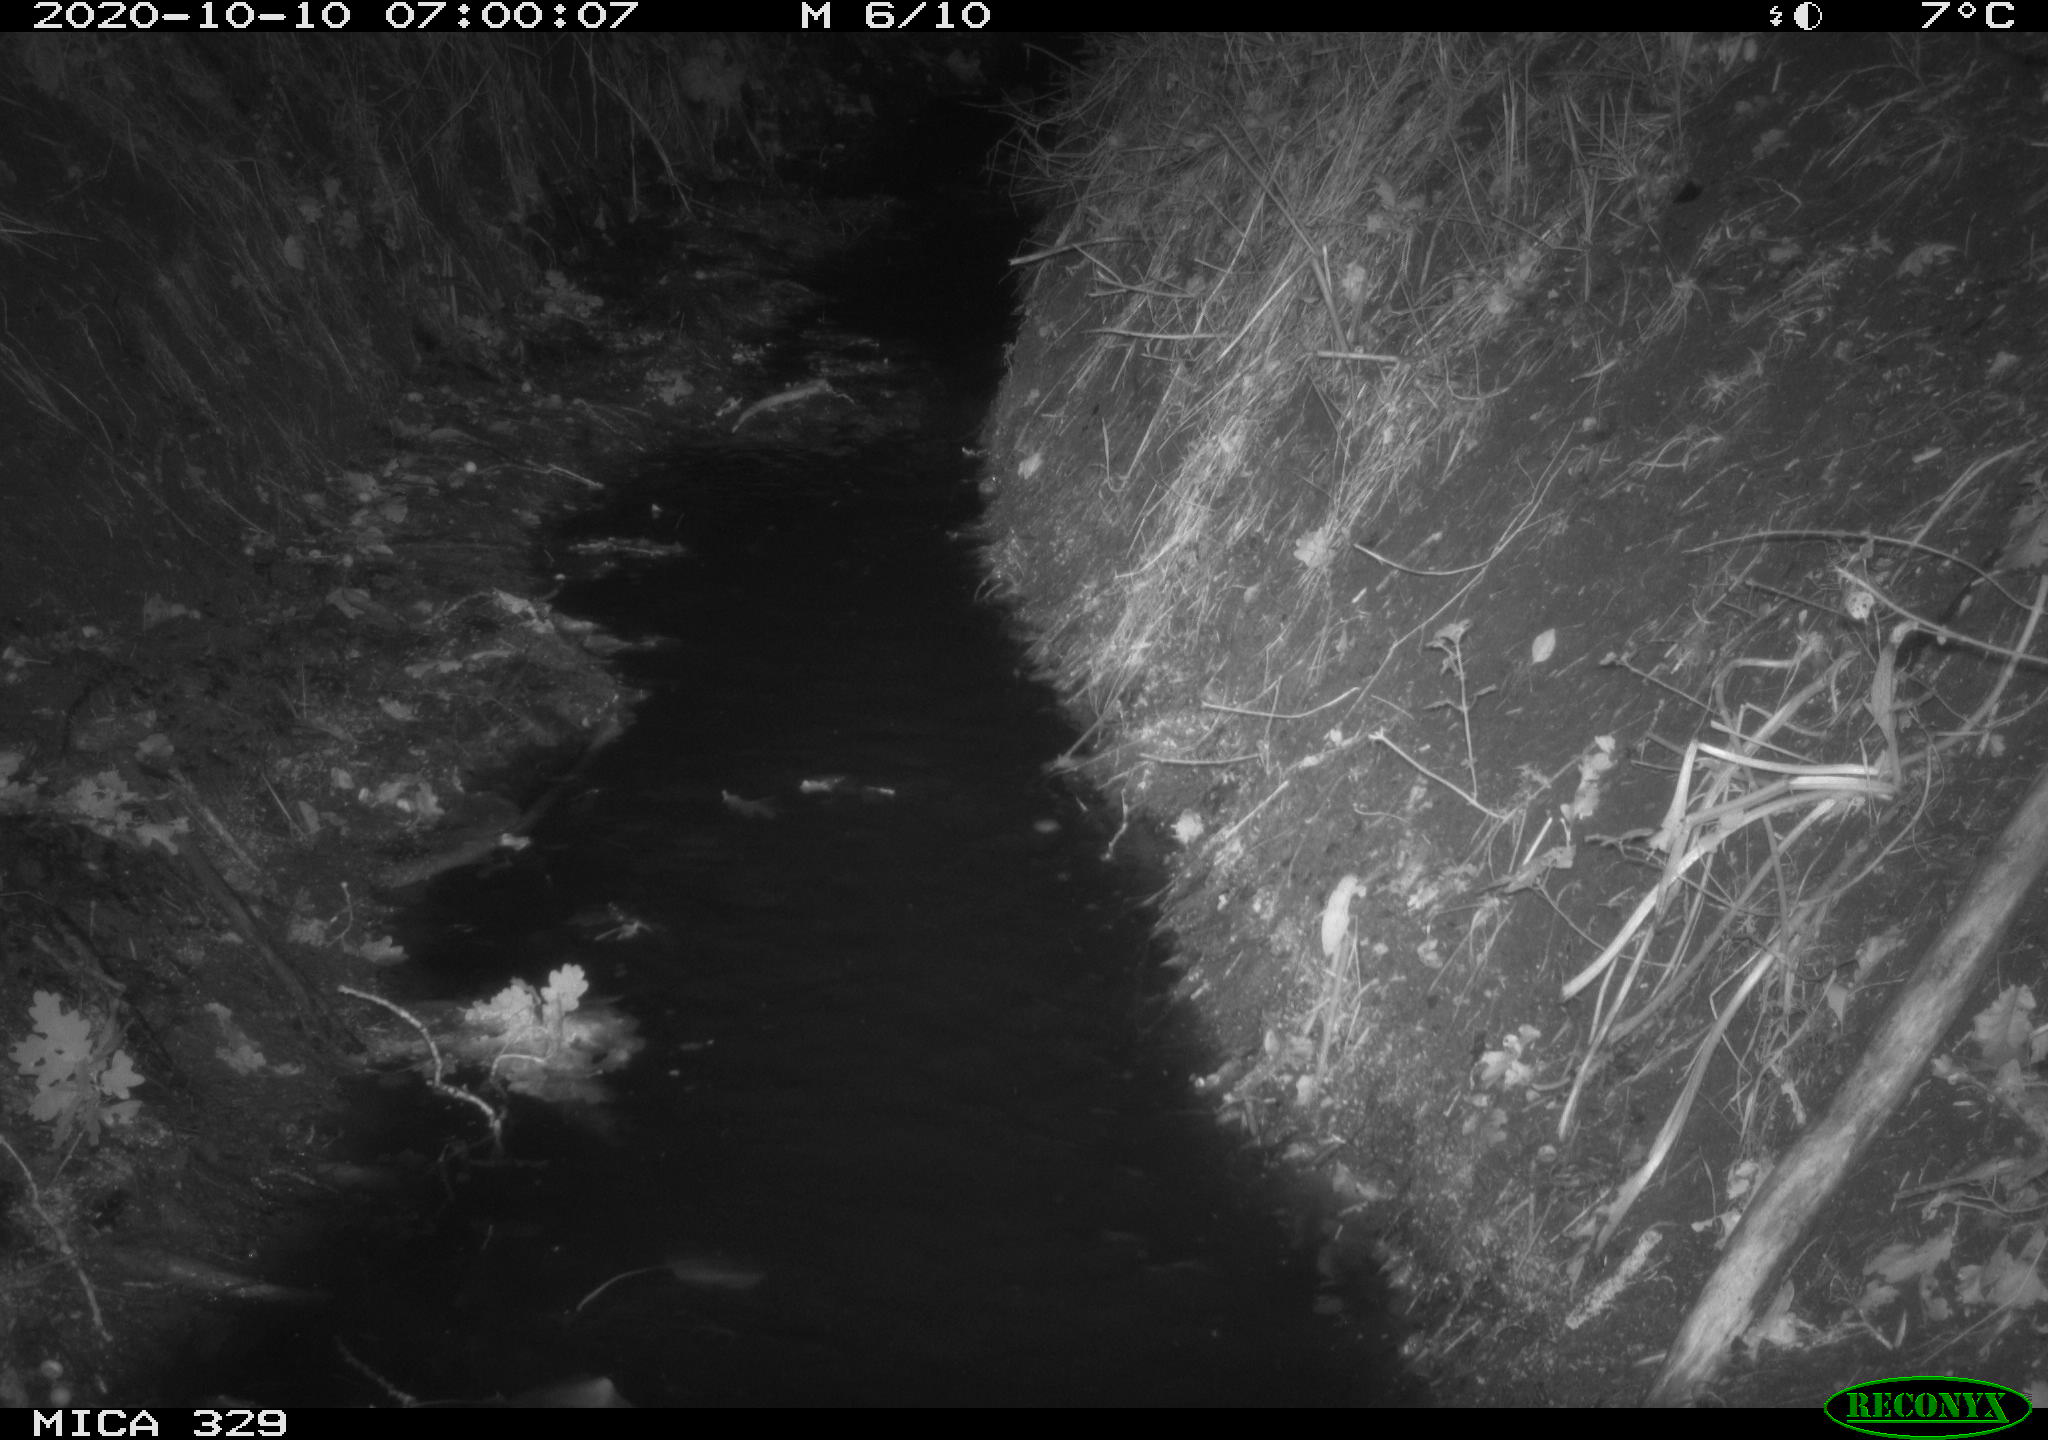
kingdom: Animalia
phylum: Chordata
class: Mammalia
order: Rodentia
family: Myocastoridae
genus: Myocastor
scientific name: Myocastor coypus
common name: Coypu
